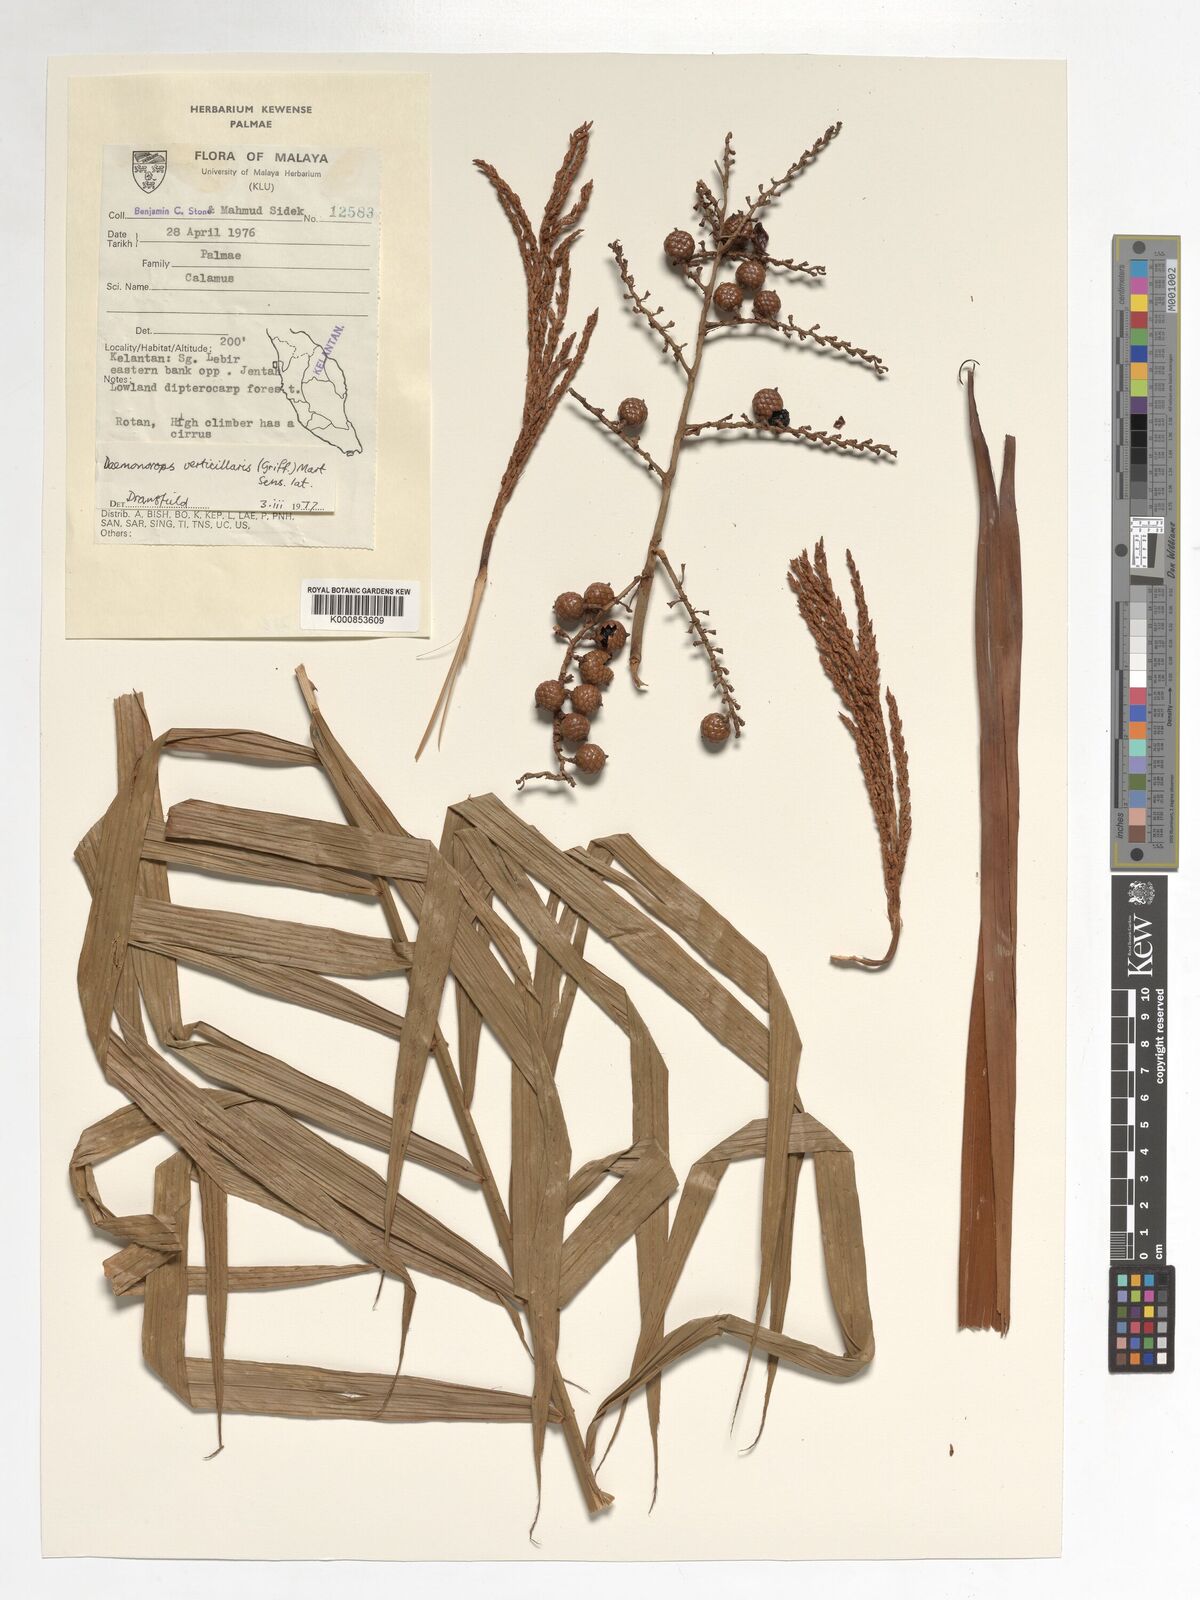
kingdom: Plantae
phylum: Tracheophyta
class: Liliopsida
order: Arecales
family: Arecaceae
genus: Calamus
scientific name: Calamus verticillaris
